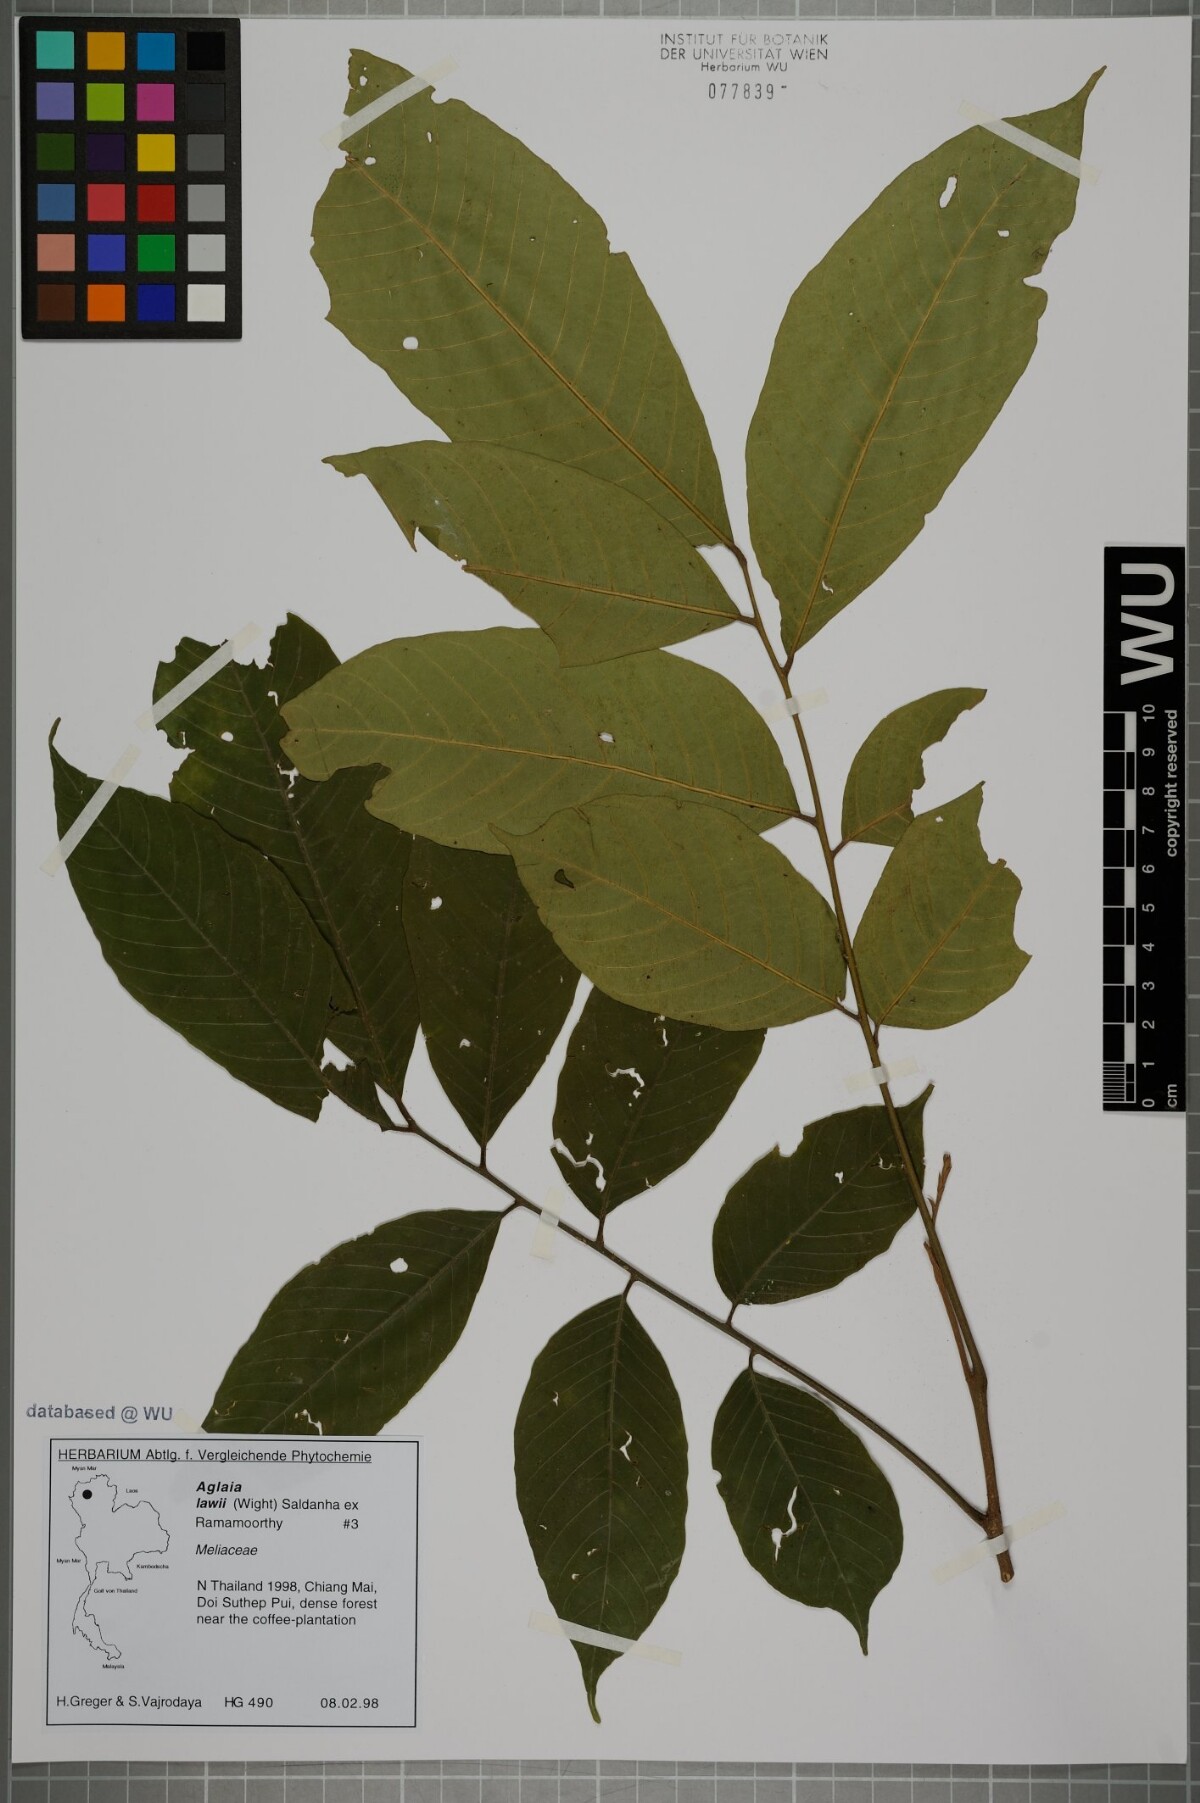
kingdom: Plantae
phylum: Tracheophyta
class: Magnoliopsida
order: Sapindales
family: Meliaceae
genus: Aglaia
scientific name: Aglaia lawii
